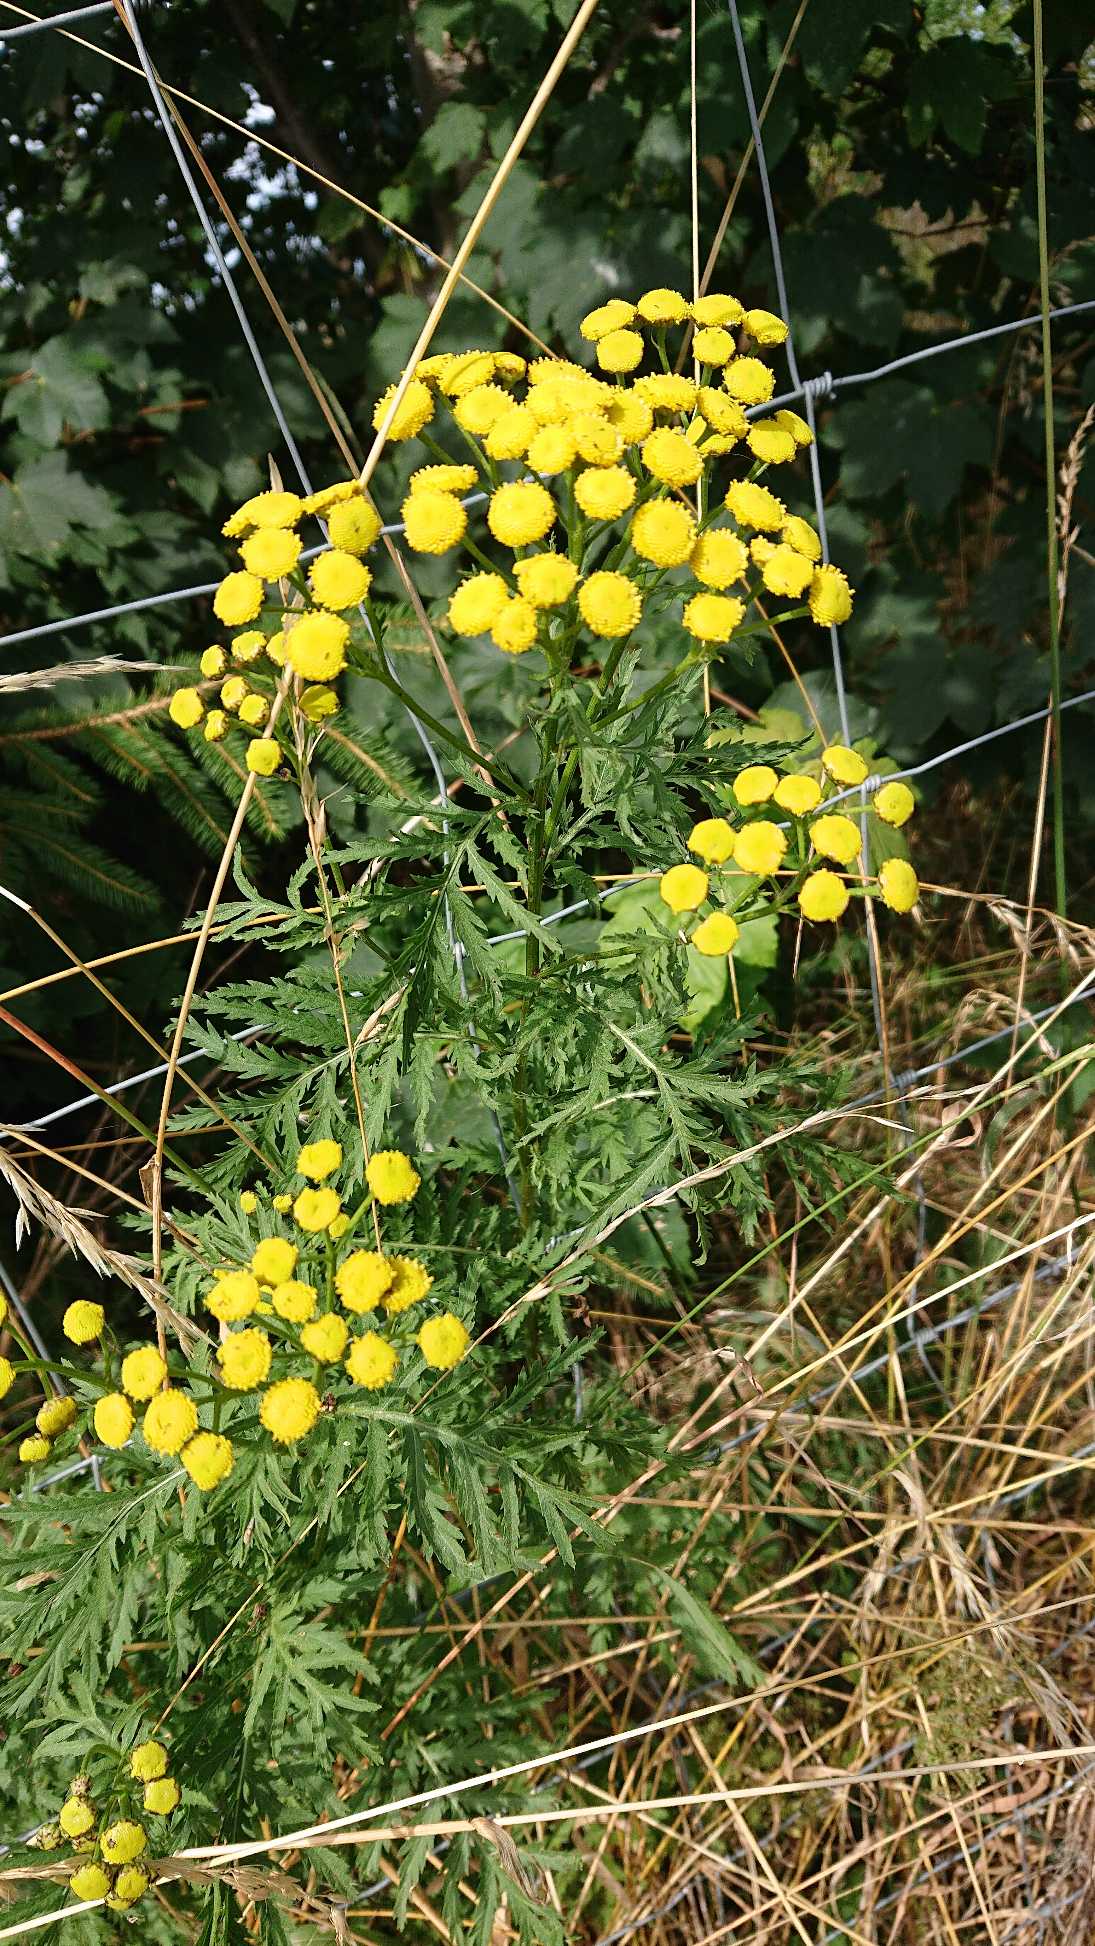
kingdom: Plantae
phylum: Tracheophyta
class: Magnoliopsida
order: Asterales
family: Asteraceae
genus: Tanacetum
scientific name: Tanacetum vulgare
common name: Rejnfan
